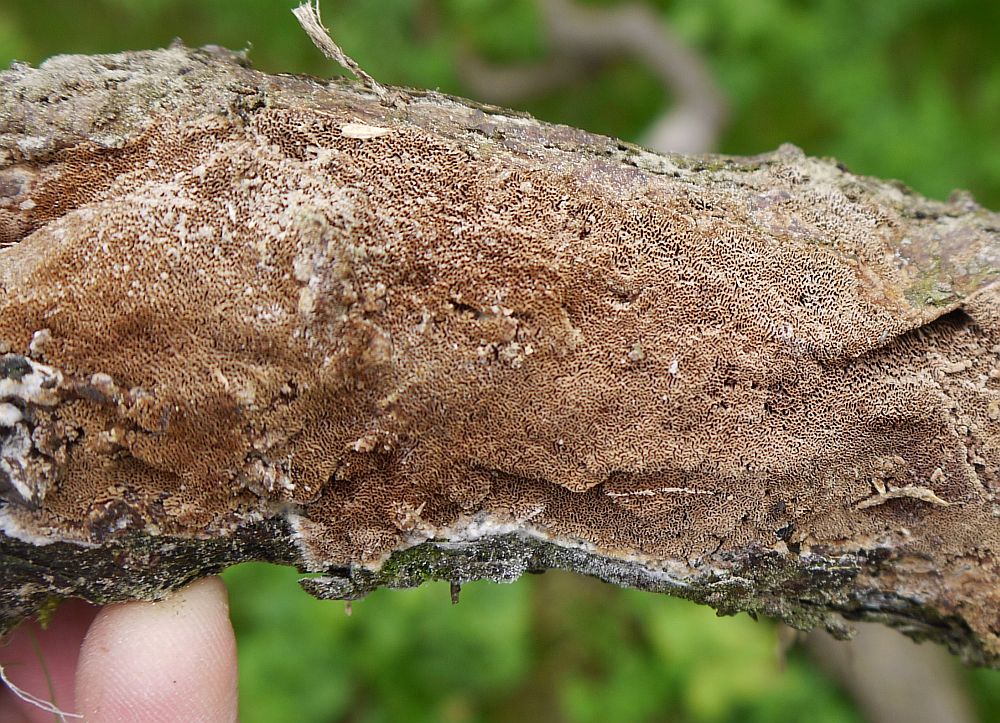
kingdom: Fungi
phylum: Basidiomycota
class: Agaricomycetes
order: Hymenochaetales
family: Hymenochaetaceae
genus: Fuscoporia
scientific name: Fuscoporia contigua
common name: grov ildporesvamp
